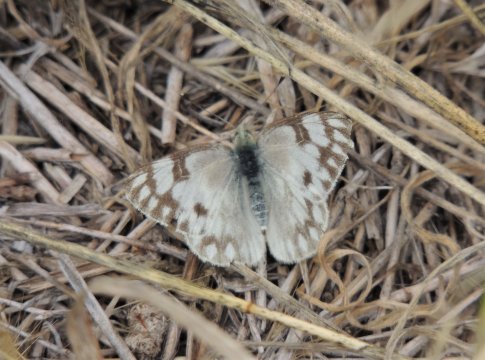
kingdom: Animalia
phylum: Arthropoda
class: Insecta
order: Lepidoptera
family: Pieridae
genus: Pontia
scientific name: Pontia occidentalis
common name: Western White
